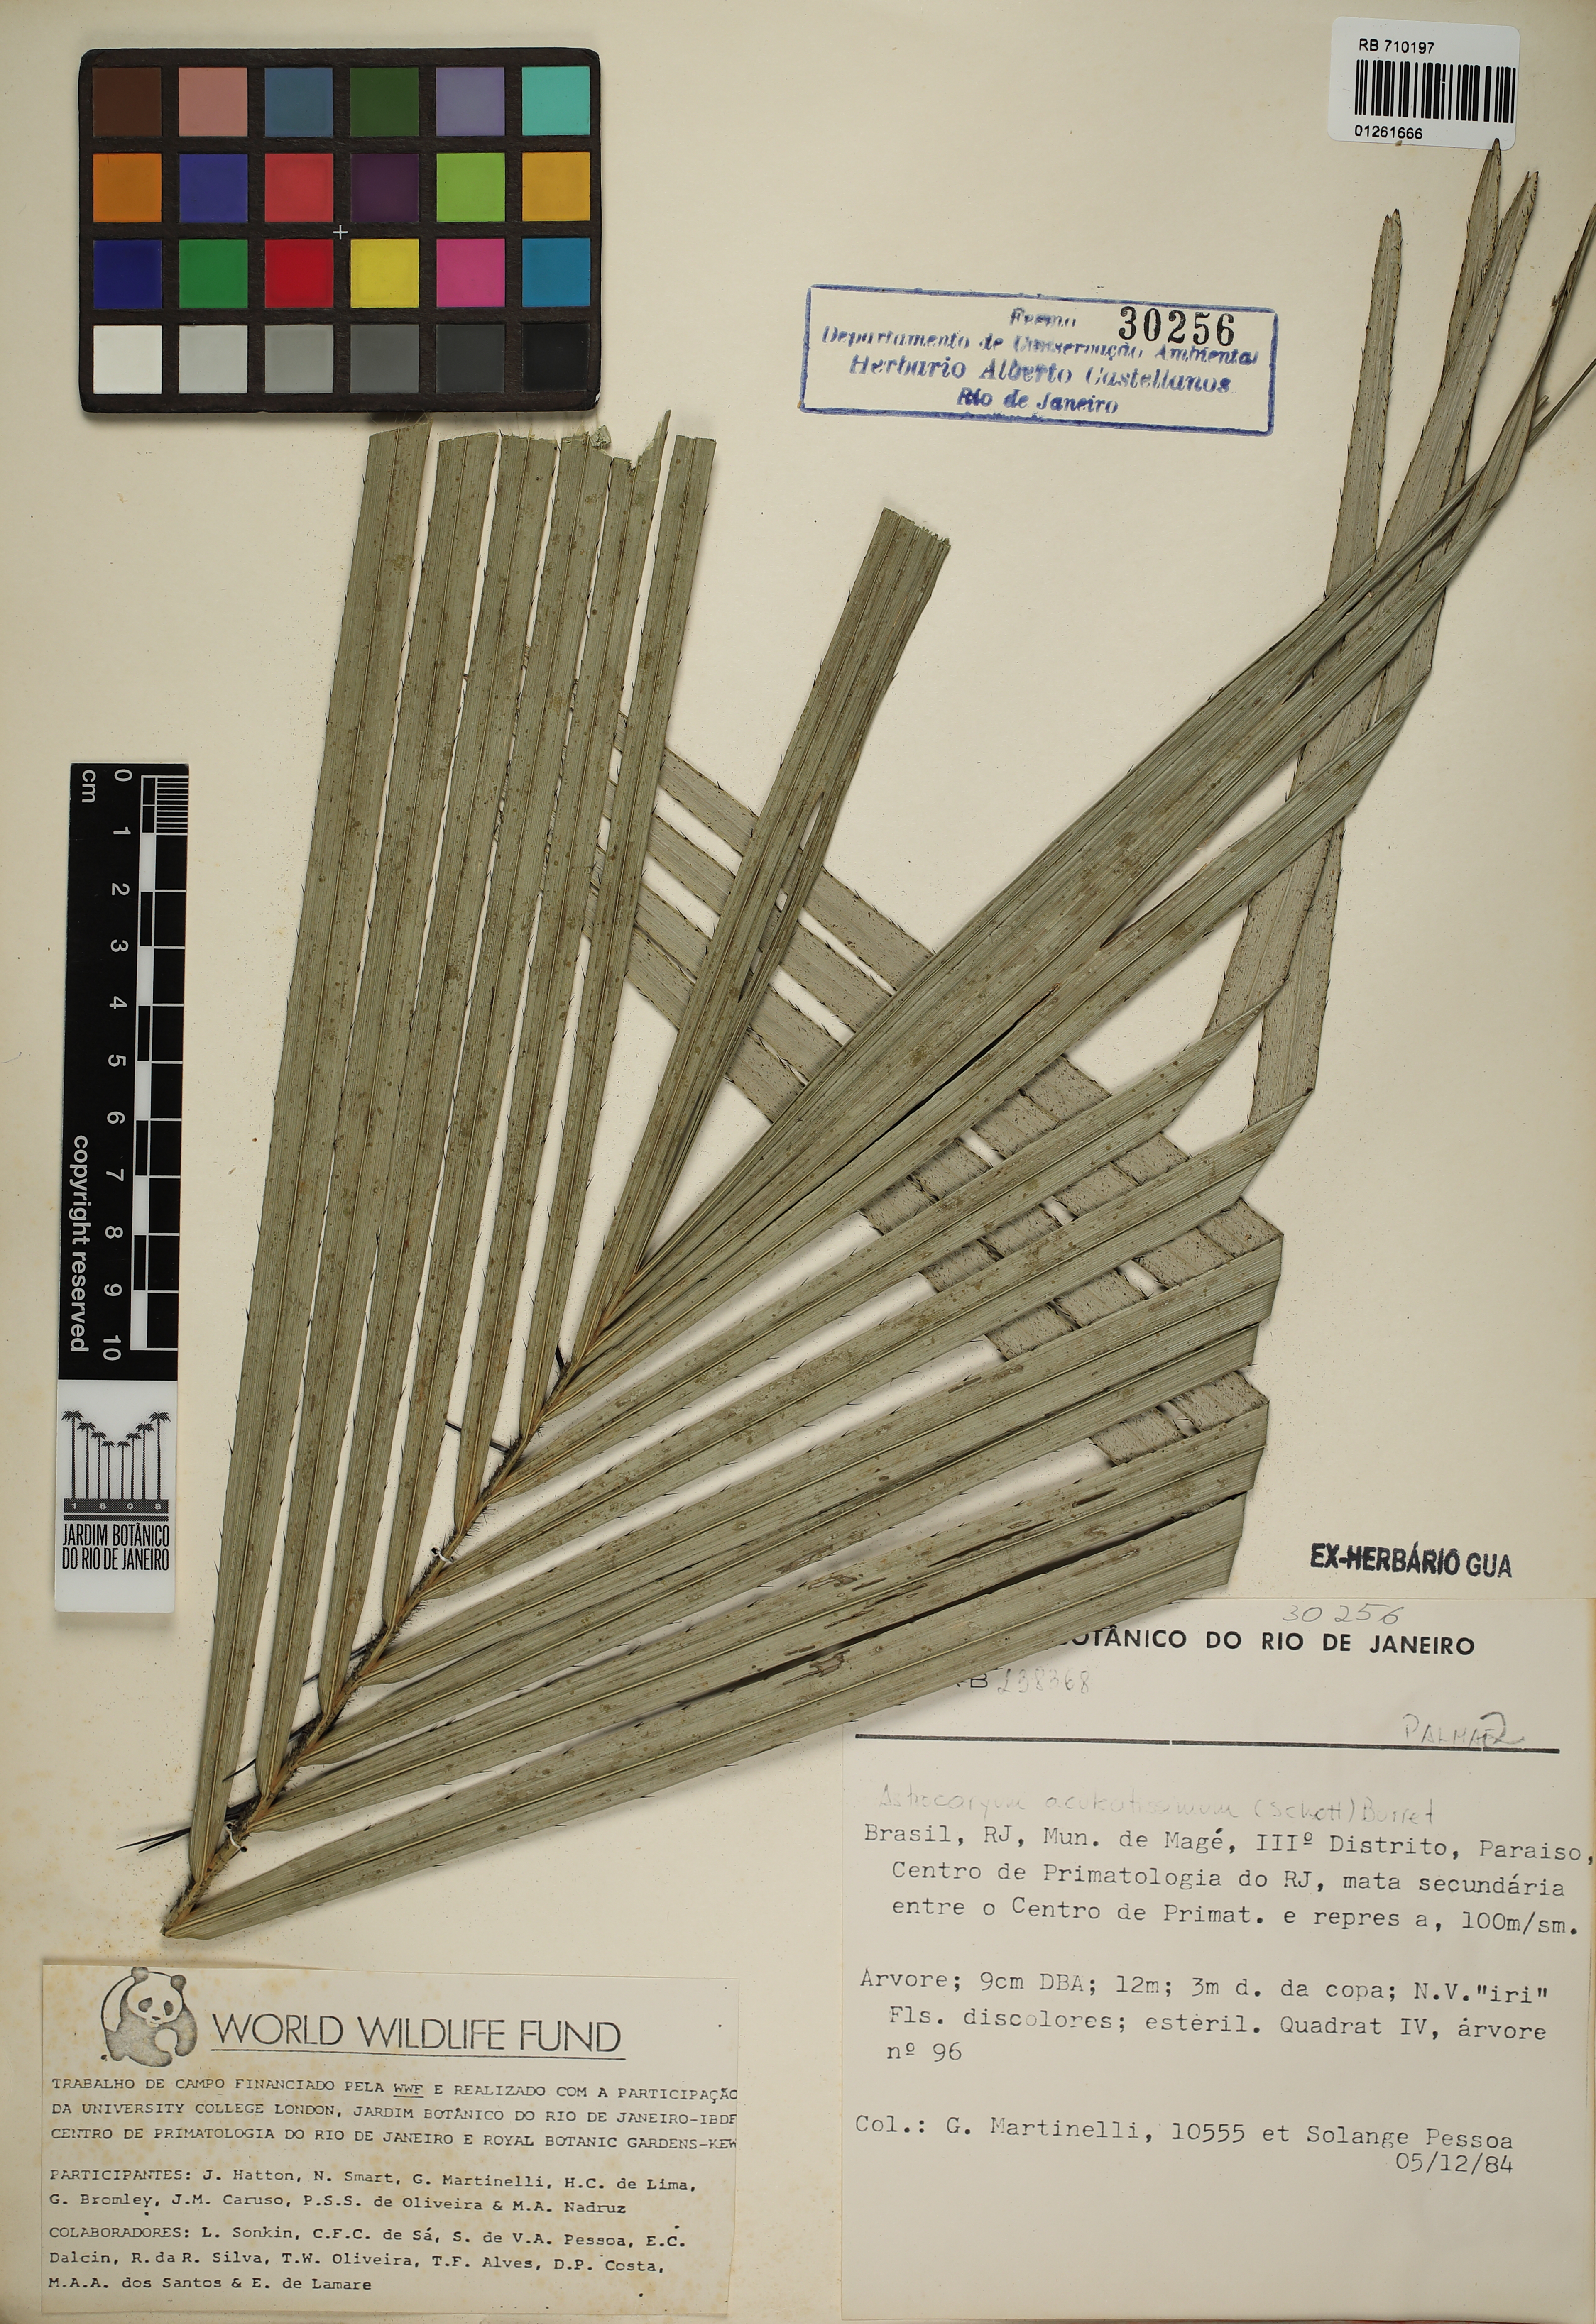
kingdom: Plantae
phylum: Tracheophyta
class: Liliopsida
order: Arecales
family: Arecaceae
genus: Astrocaryum
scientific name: Astrocaryum aculeatissimum
